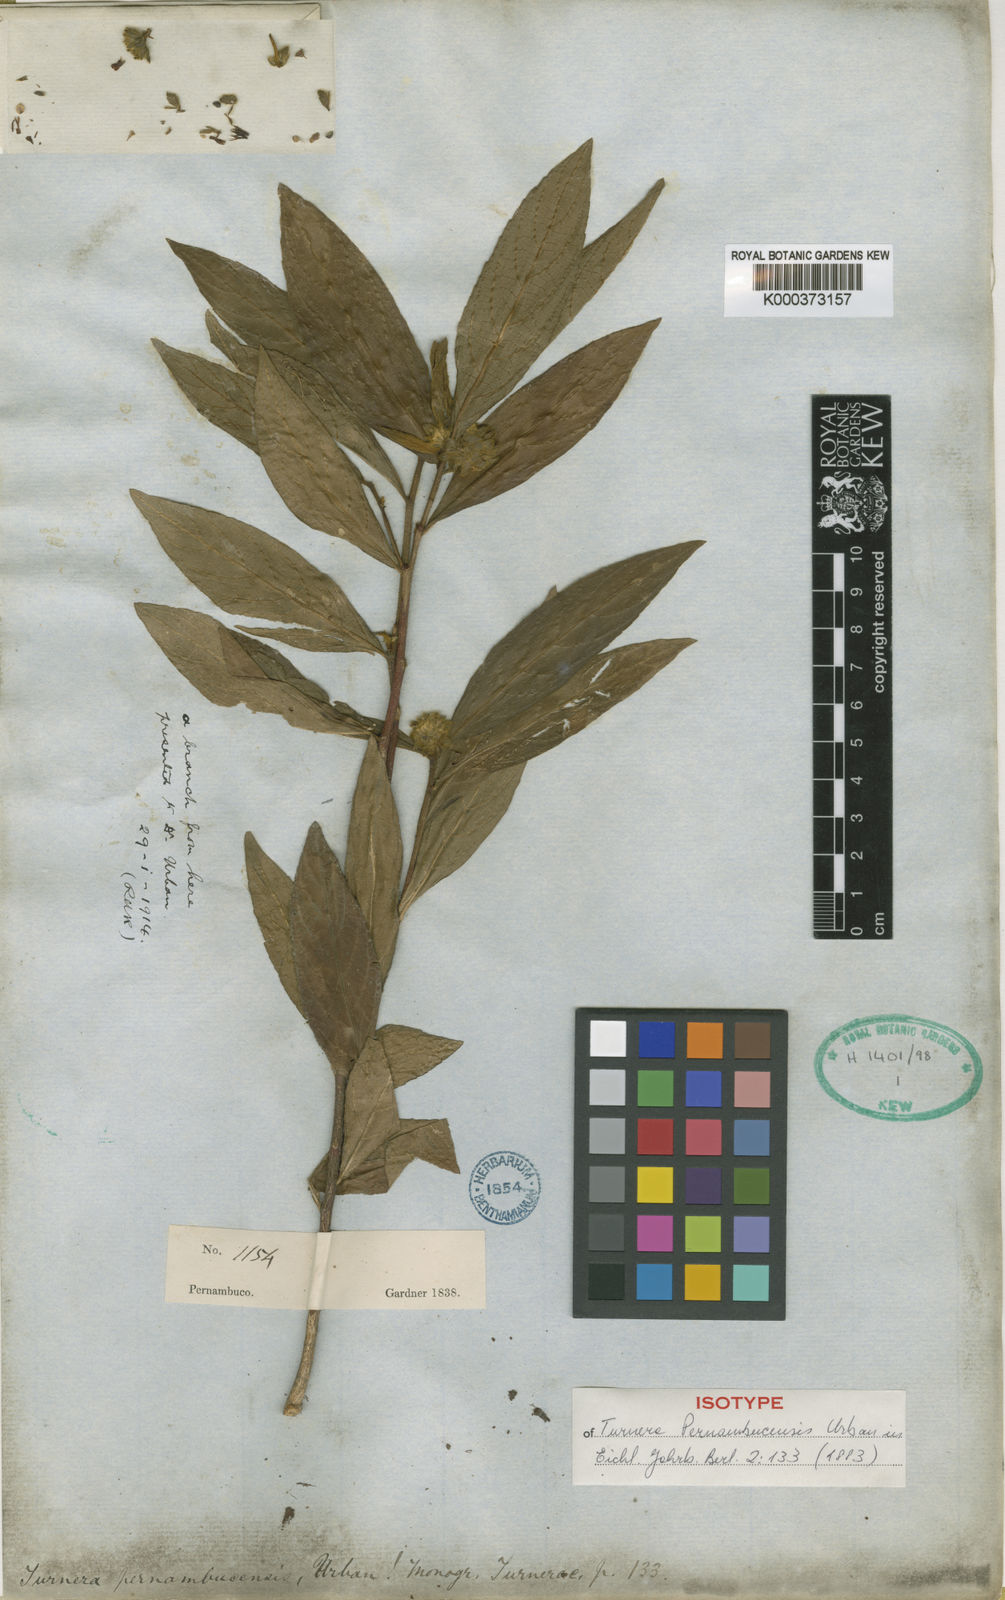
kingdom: Plantae
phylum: Tracheophyta
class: Magnoliopsida
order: Malpighiales
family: Turneraceae
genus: Oxossia
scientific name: Oxossia pernambucensis
